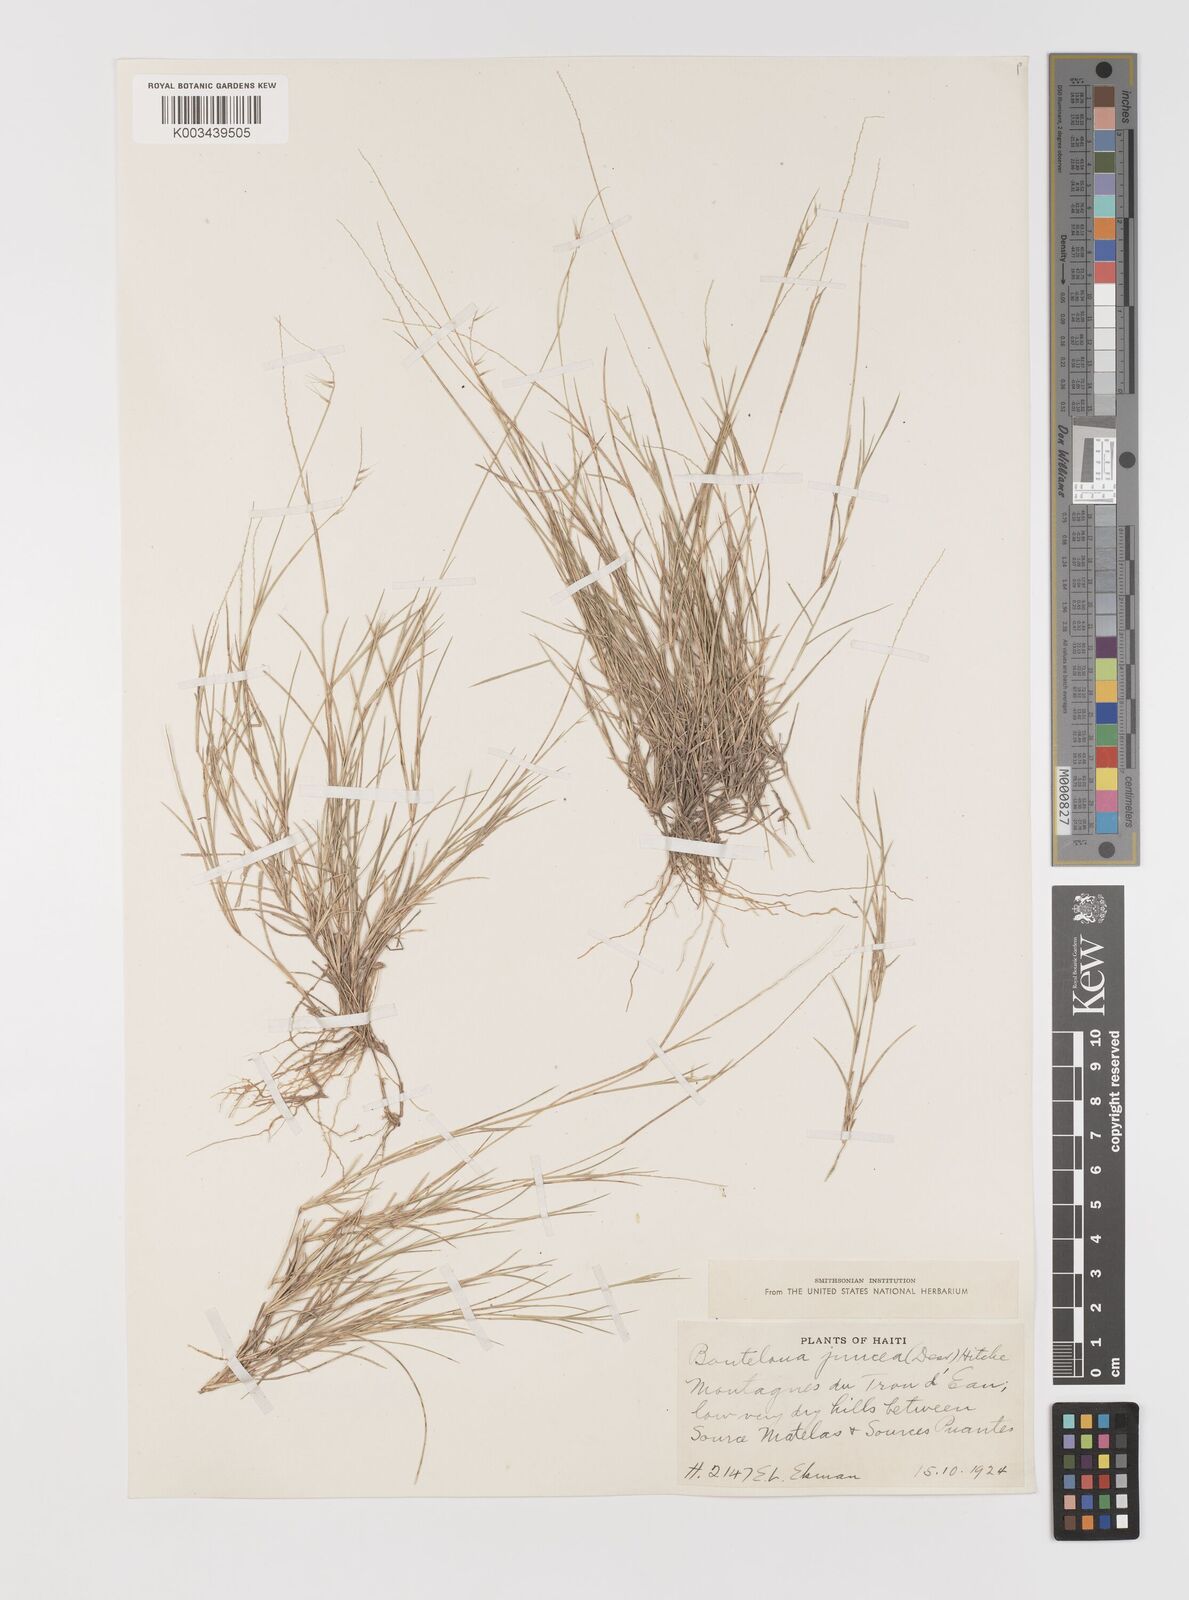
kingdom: Plantae
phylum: Tracheophyta
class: Liliopsida
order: Poales
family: Poaceae
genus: Bouteloua
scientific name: Bouteloua juncea
